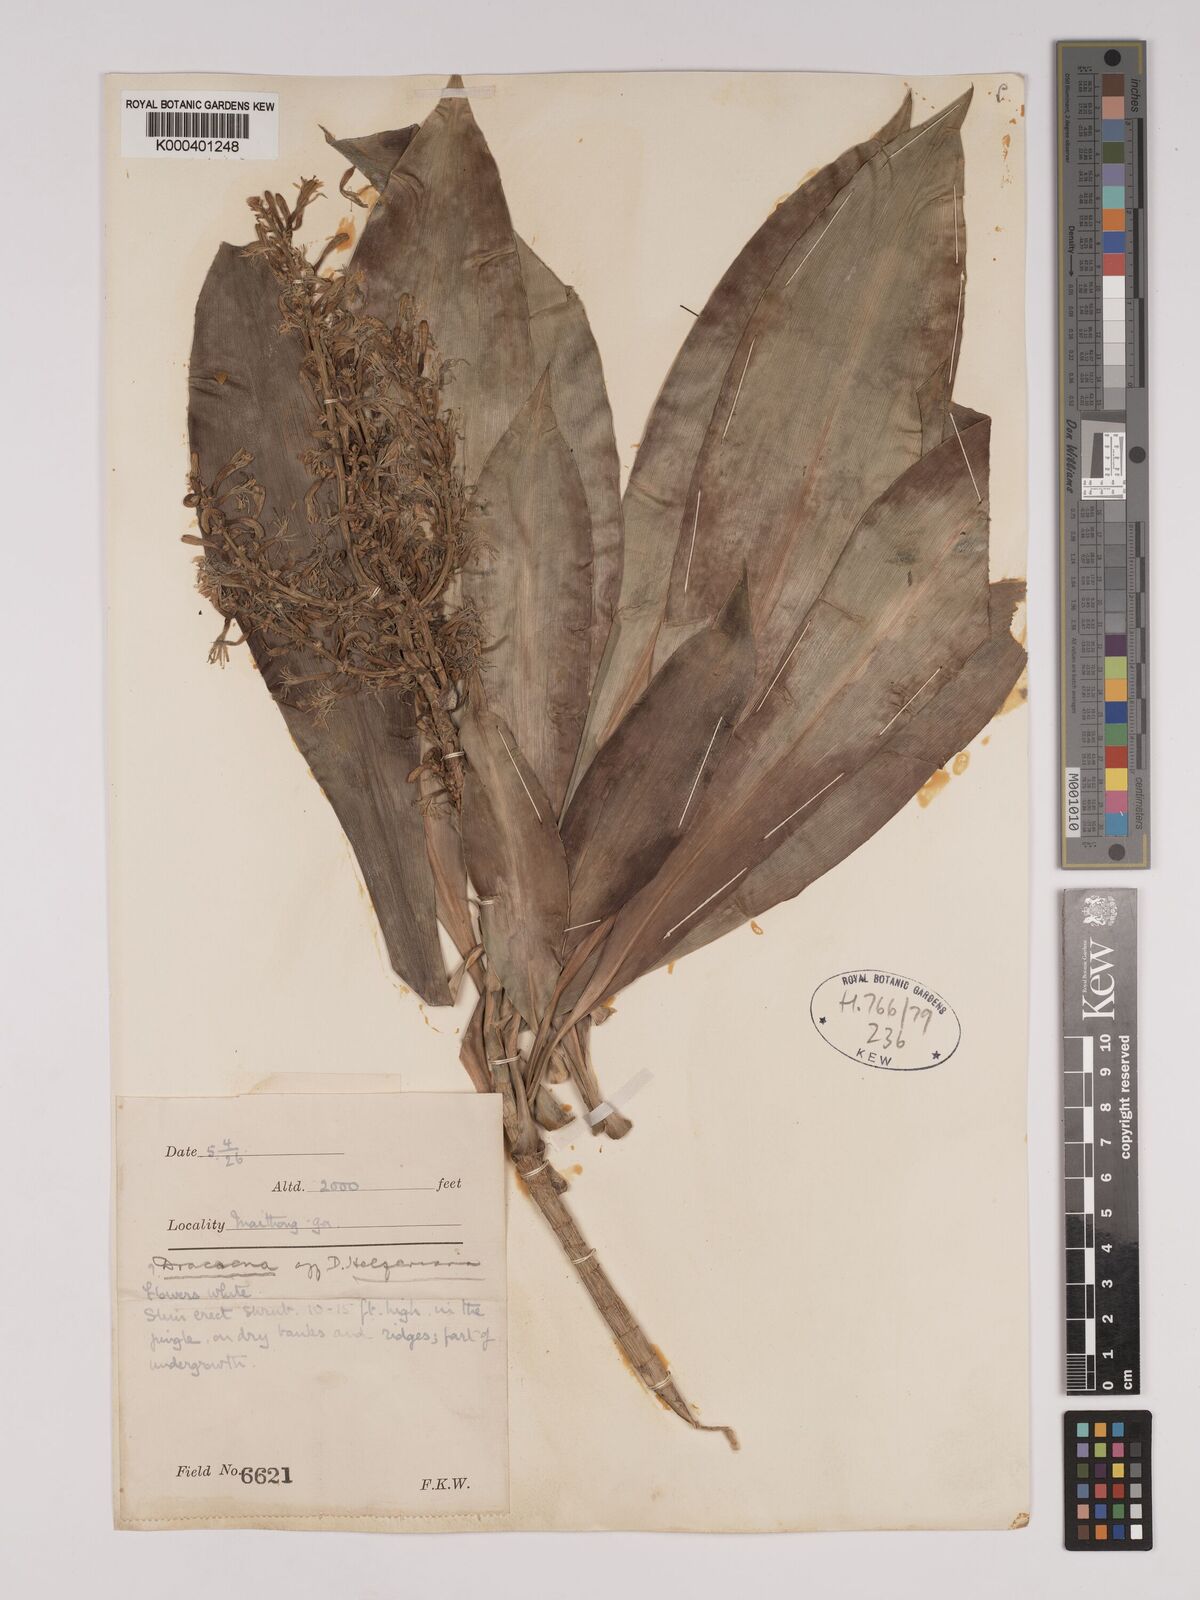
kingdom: Plantae
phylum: Tracheophyta
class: Liliopsida
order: Asparagales
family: Asparagaceae
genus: Dracaena
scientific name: Dracaena griffithii
